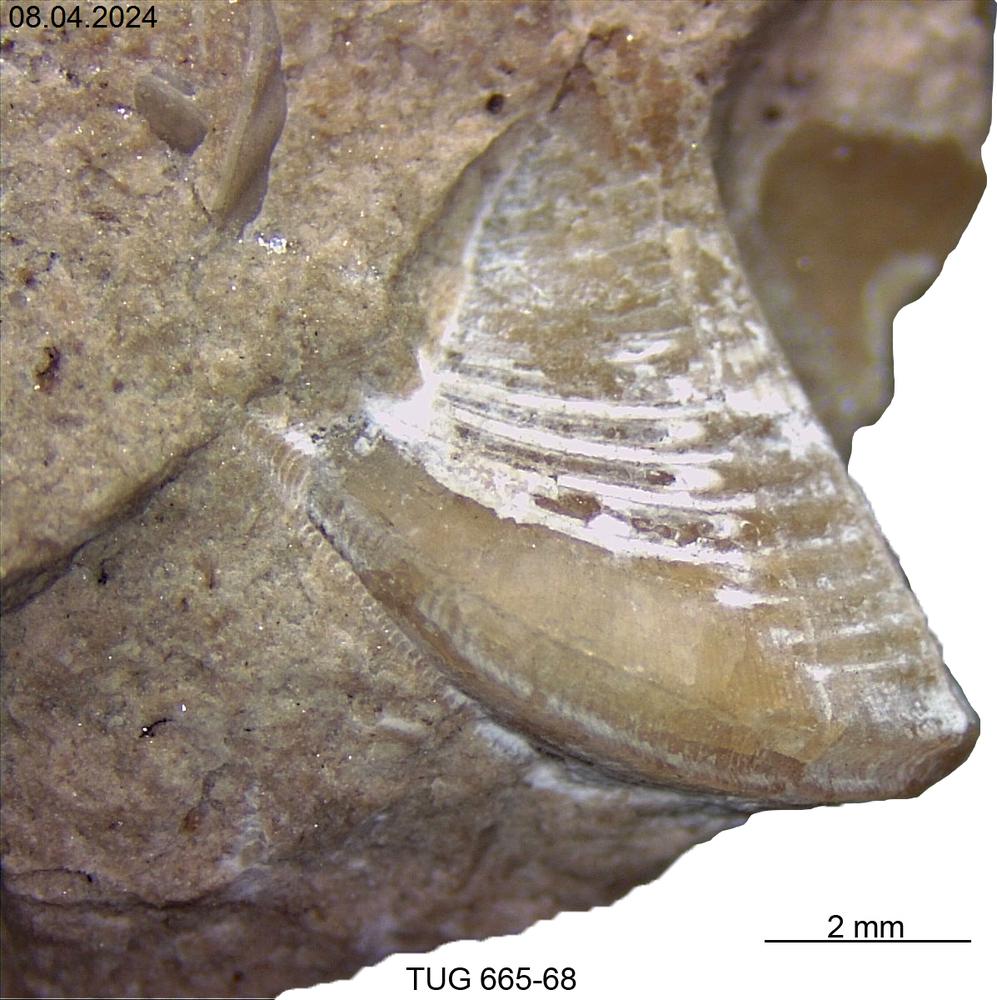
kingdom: Animalia
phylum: Mollusca
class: Rostroconchia
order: Conocardiida
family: Hippocardiidae
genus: Hippocardia
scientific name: Hippocardia
